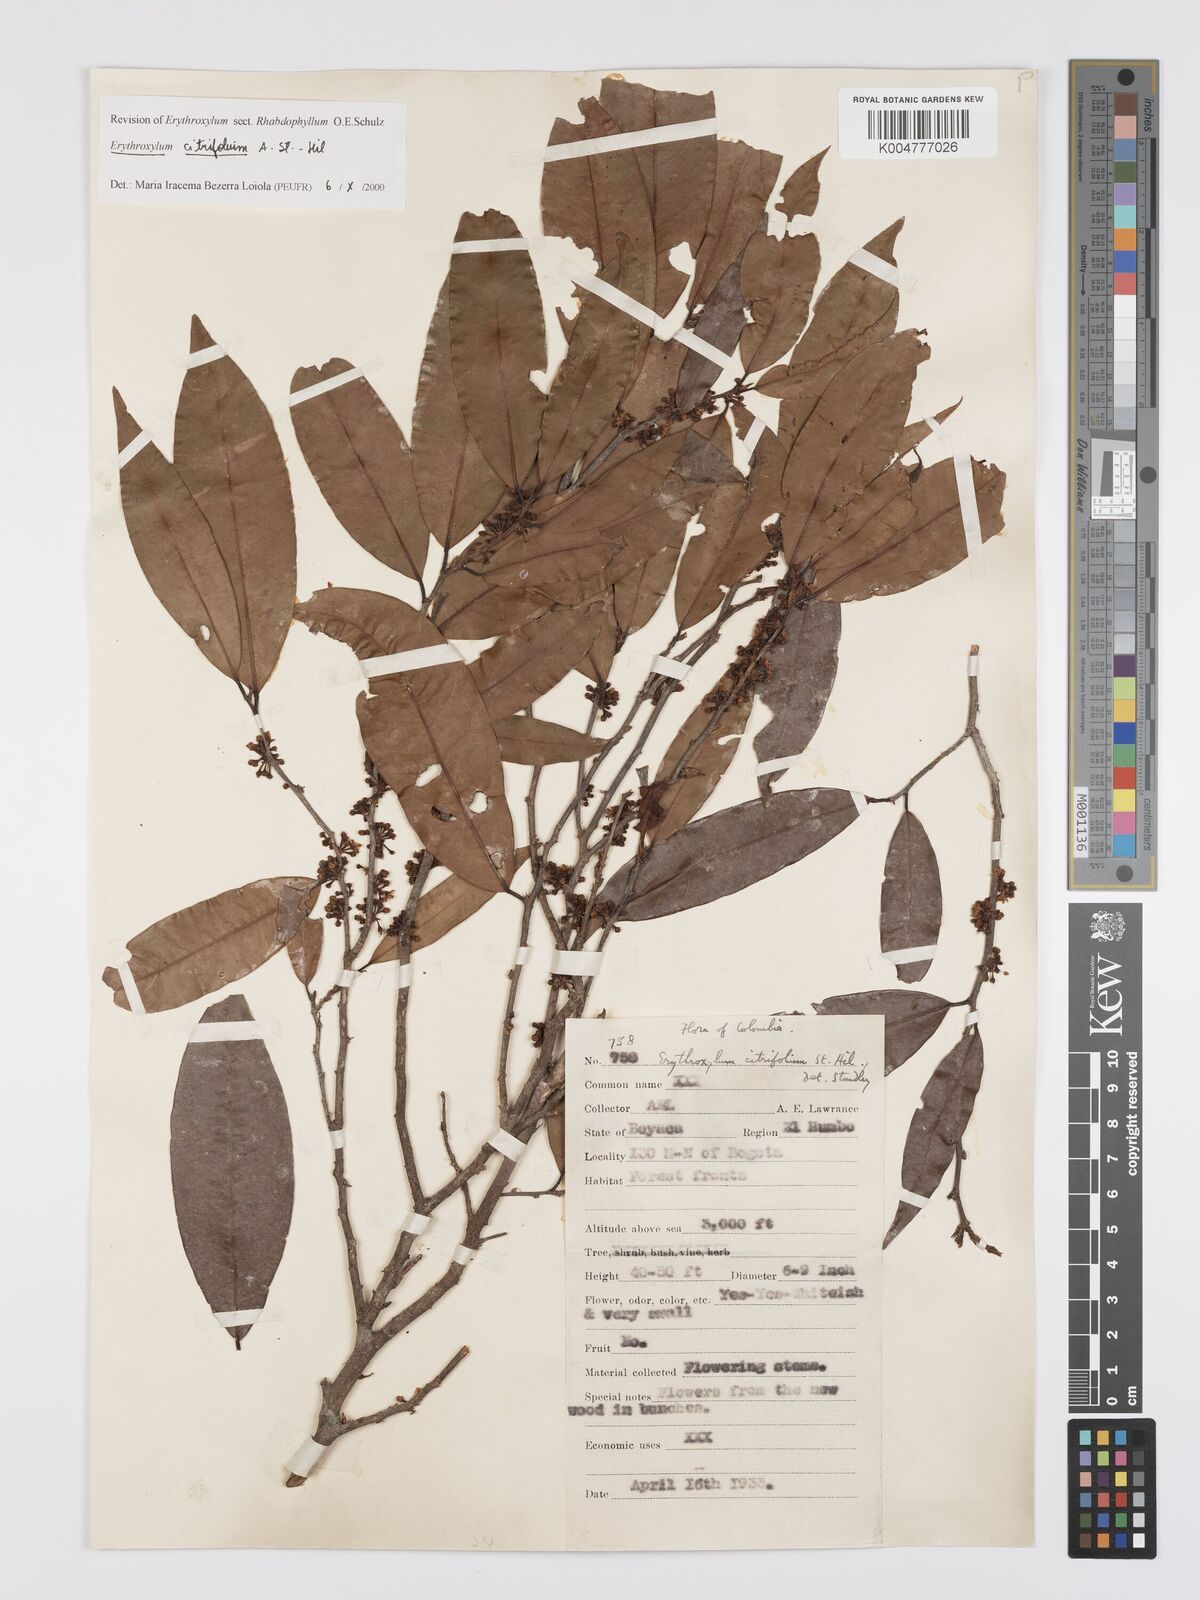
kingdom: Plantae
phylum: Tracheophyta
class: Magnoliopsida
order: Malpighiales
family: Erythroxylaceae
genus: Erythroxylum
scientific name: Erythroxylum citrifolium
